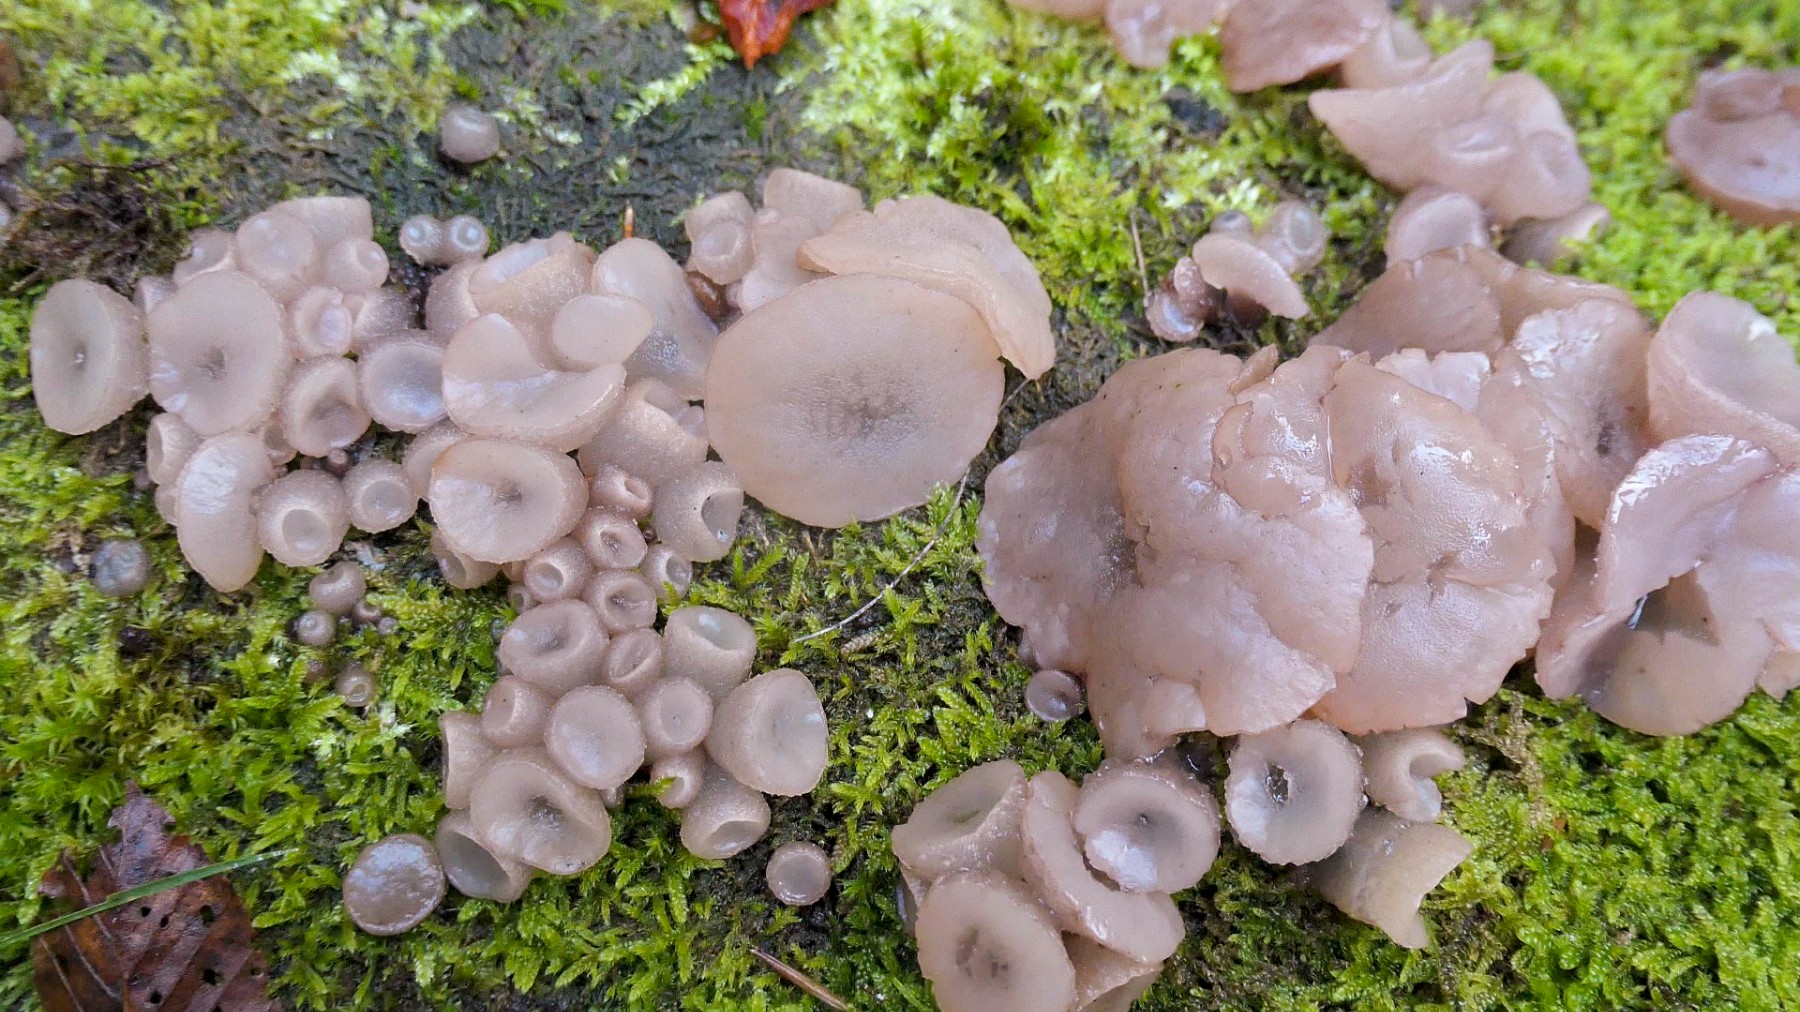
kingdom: Fungi
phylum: Ascomycota
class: Leotiomycetes
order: Helotiales
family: Gelatinodiscaceae
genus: Neobulgaria
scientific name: Neobulgaria pura
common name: bleg bævreskive
